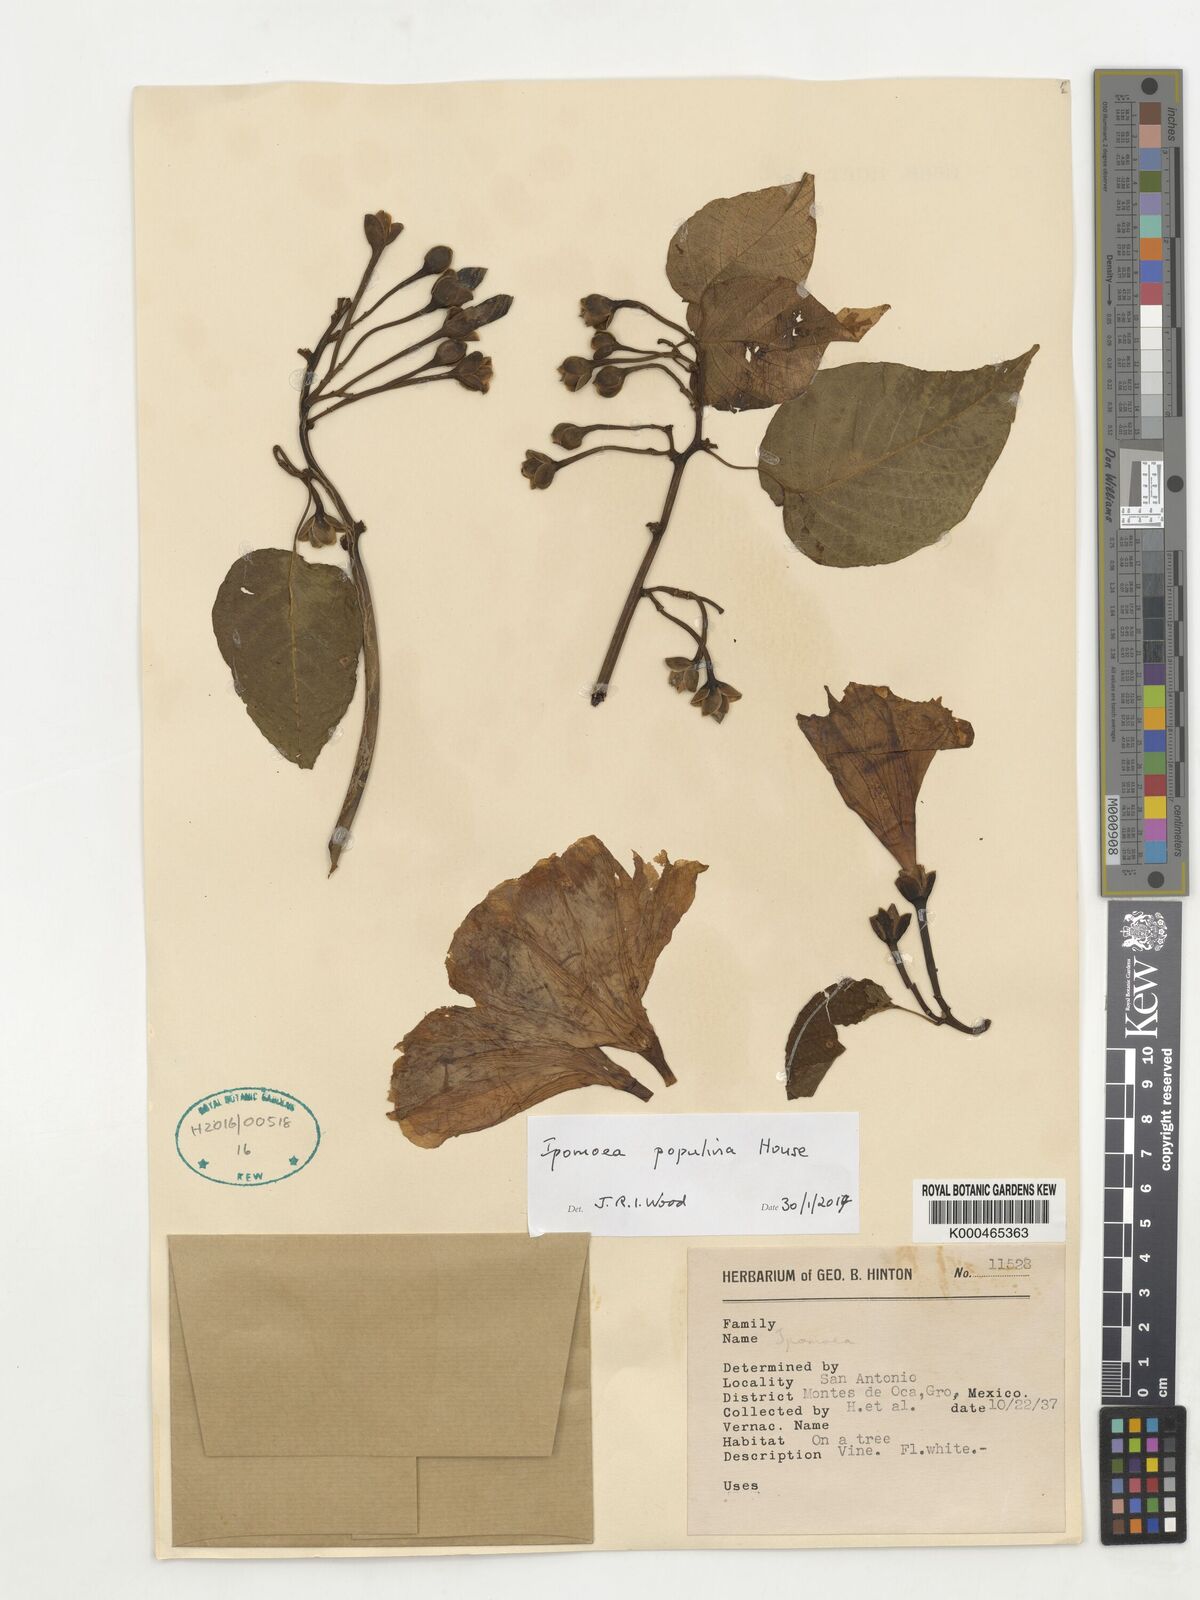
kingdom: Plantae
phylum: Tracheophyta
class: Magnoliopsida
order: Solanales
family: Convolvulaceae
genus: Ipomoea
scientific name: Ipomoea populina
